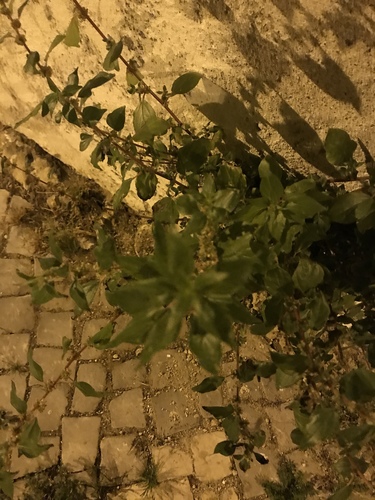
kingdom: Plantae
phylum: Tracheophyta
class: Magnoliopsida
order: Rosales
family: Urticaceae
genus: Parietaria
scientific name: Parietaria judaica
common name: Pellitory-of-the-wall
